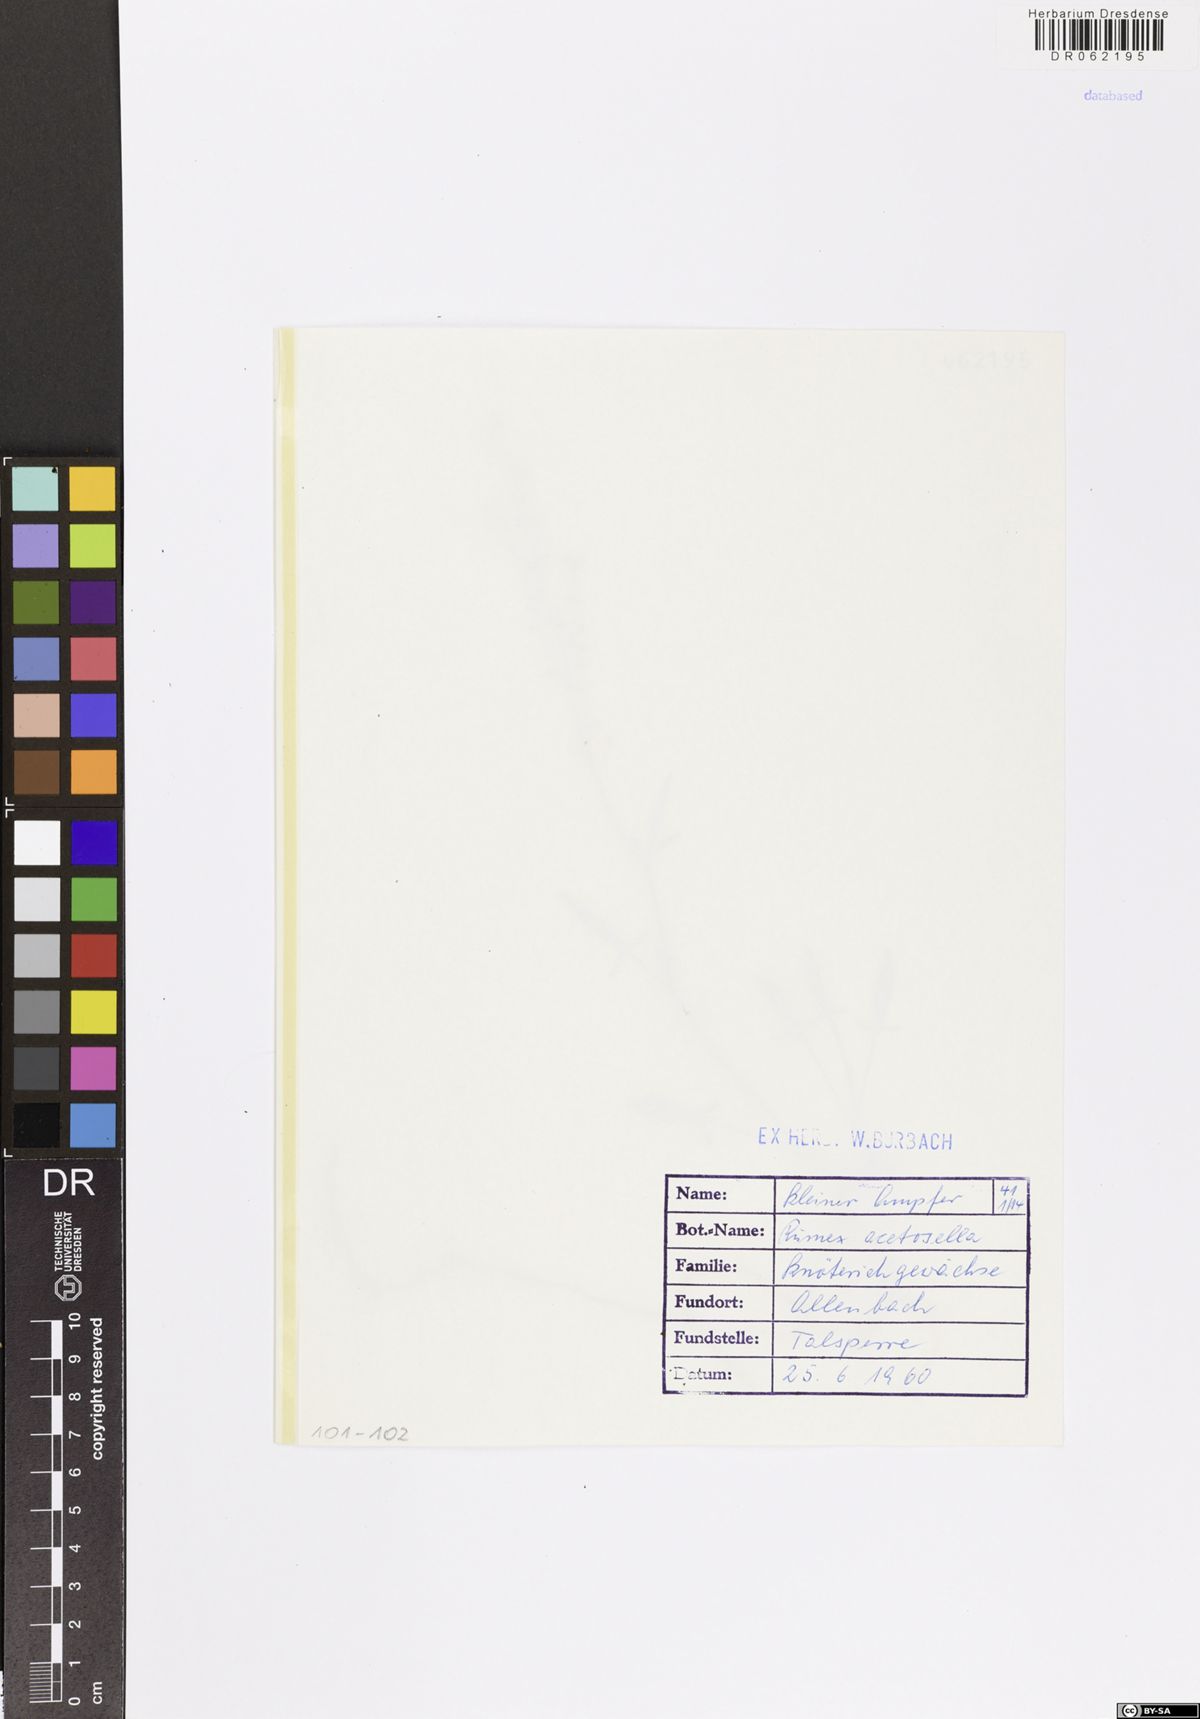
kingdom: Plantae
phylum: Tracheophyta
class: Magnoliopsida
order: Caryophyllales
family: Polygonaceae
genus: Rumex
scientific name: Rumex acetosella
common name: Common sheep sorrel
